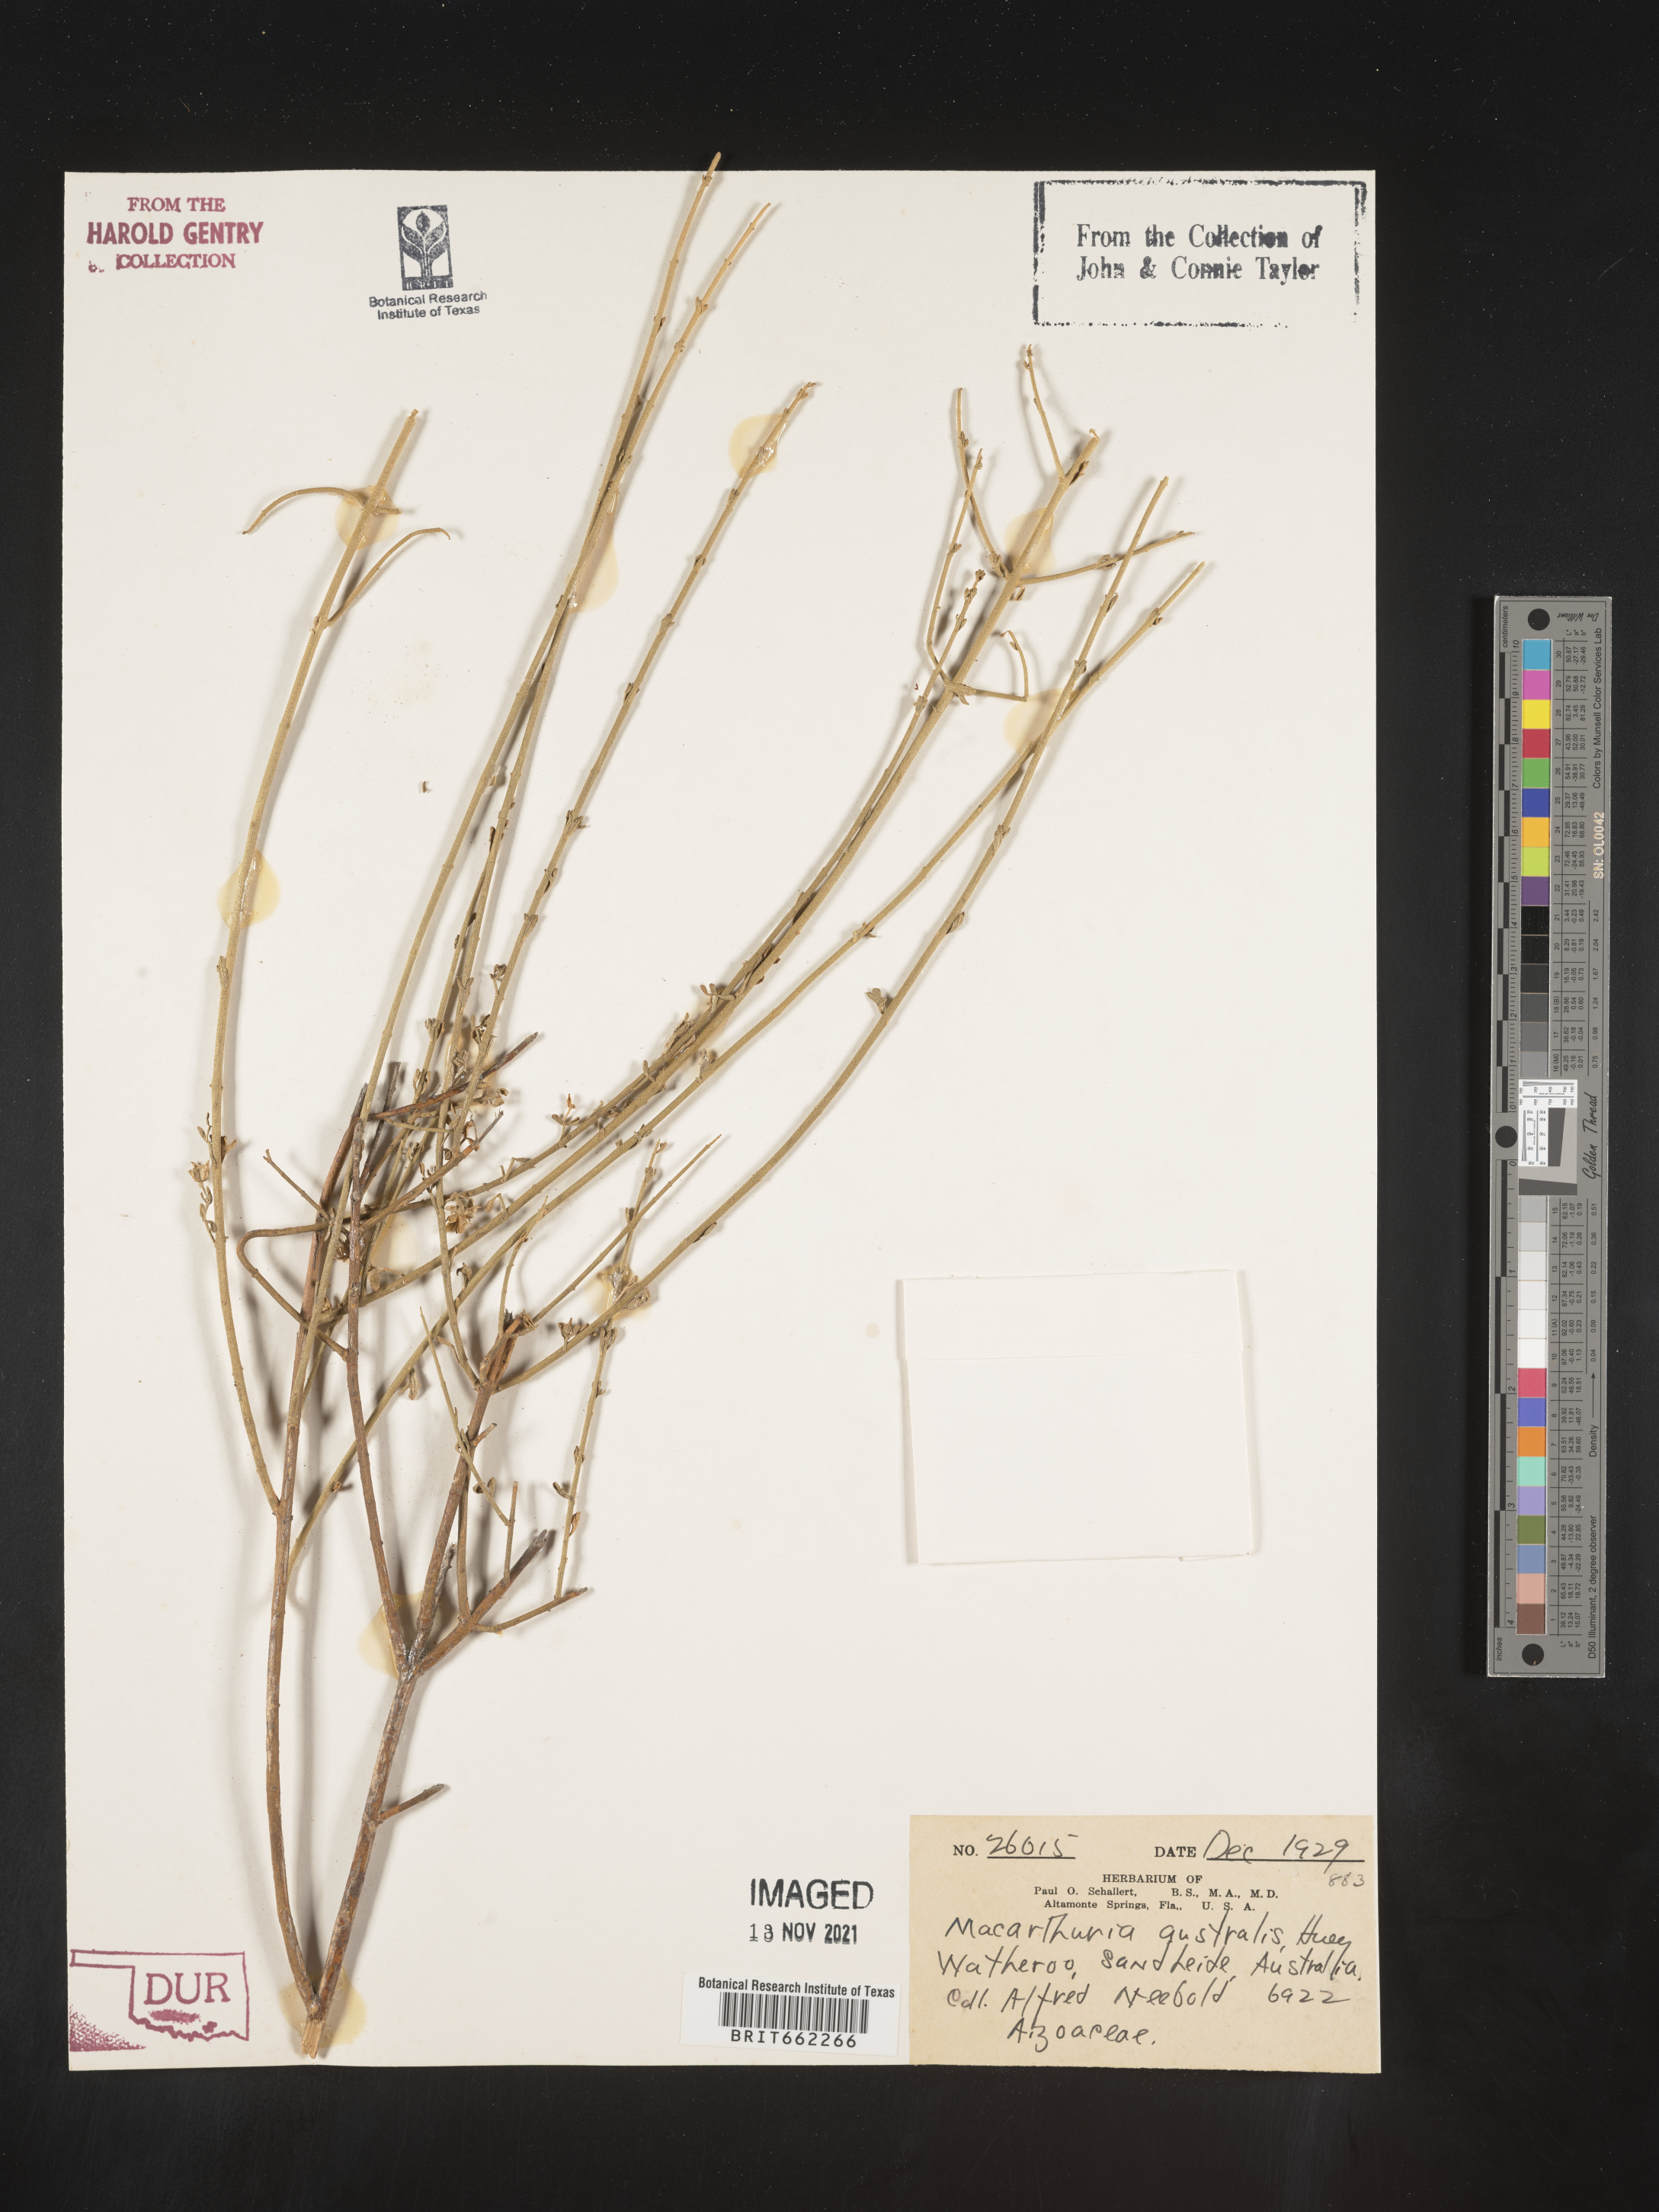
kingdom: Plantae
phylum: Tracheophyta
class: Magnoliopsida
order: Caryophyllales
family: Macarthuriaceae
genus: Macarthuria
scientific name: Macarthuria
